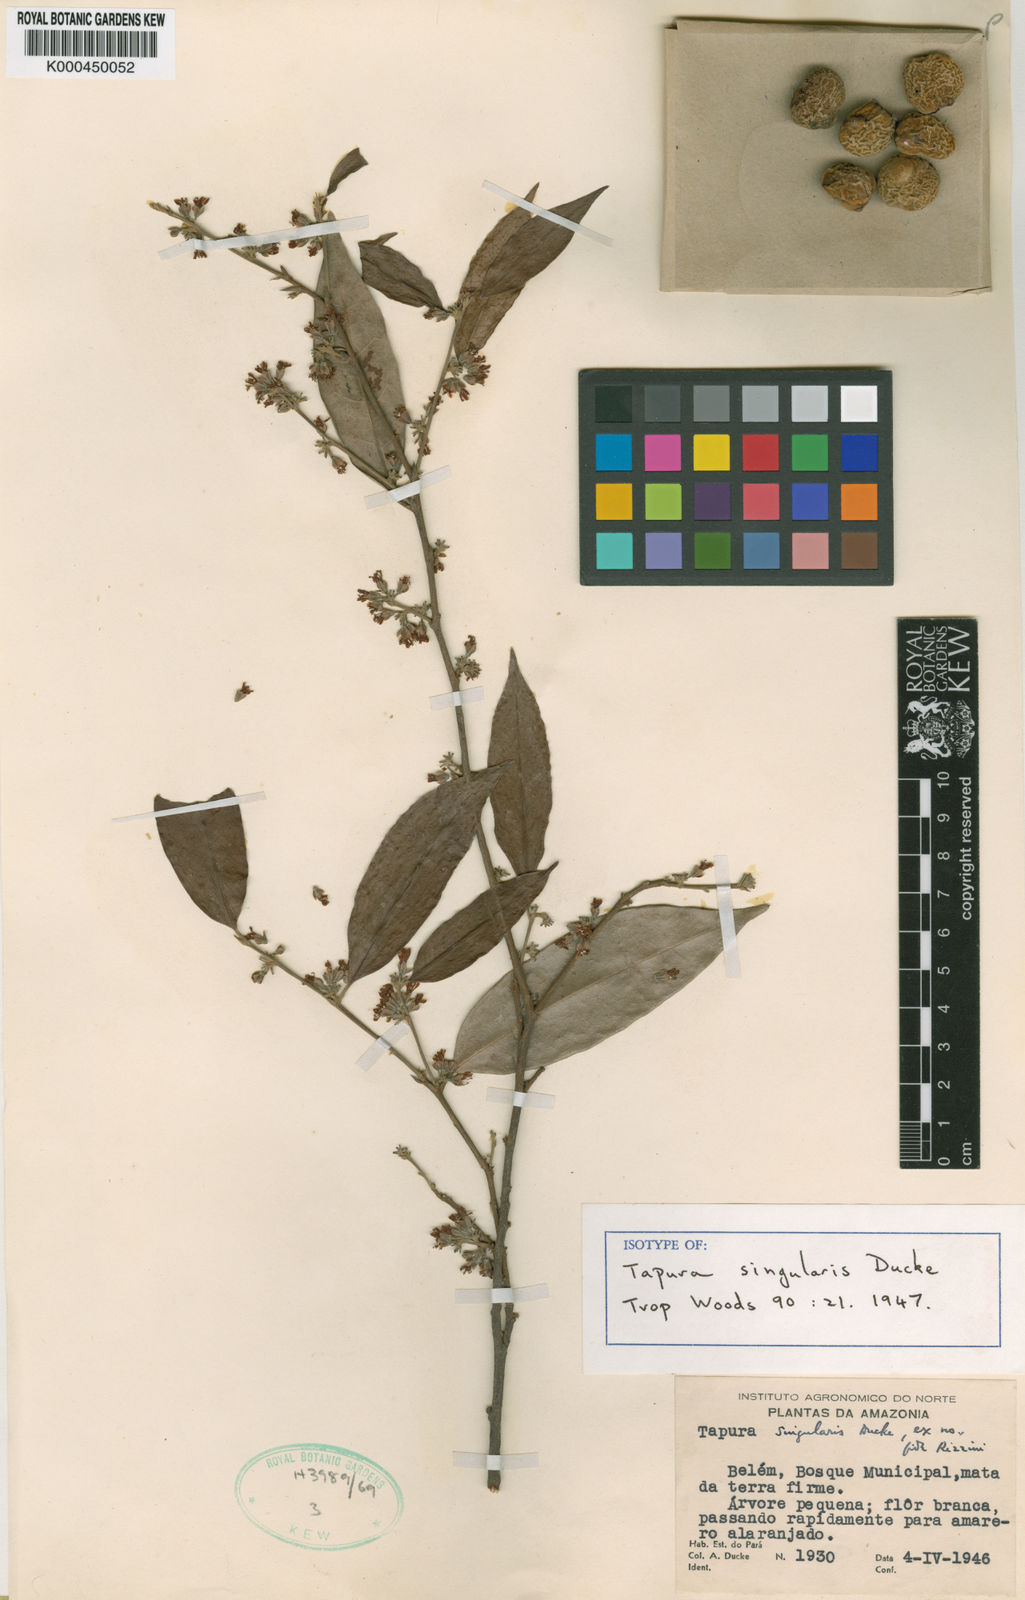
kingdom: Plantae
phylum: Tracheophyta
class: Magnoliopsida
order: Malpighiales
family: Dichapetalaceae
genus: Tapura
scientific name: Tapura singularis
